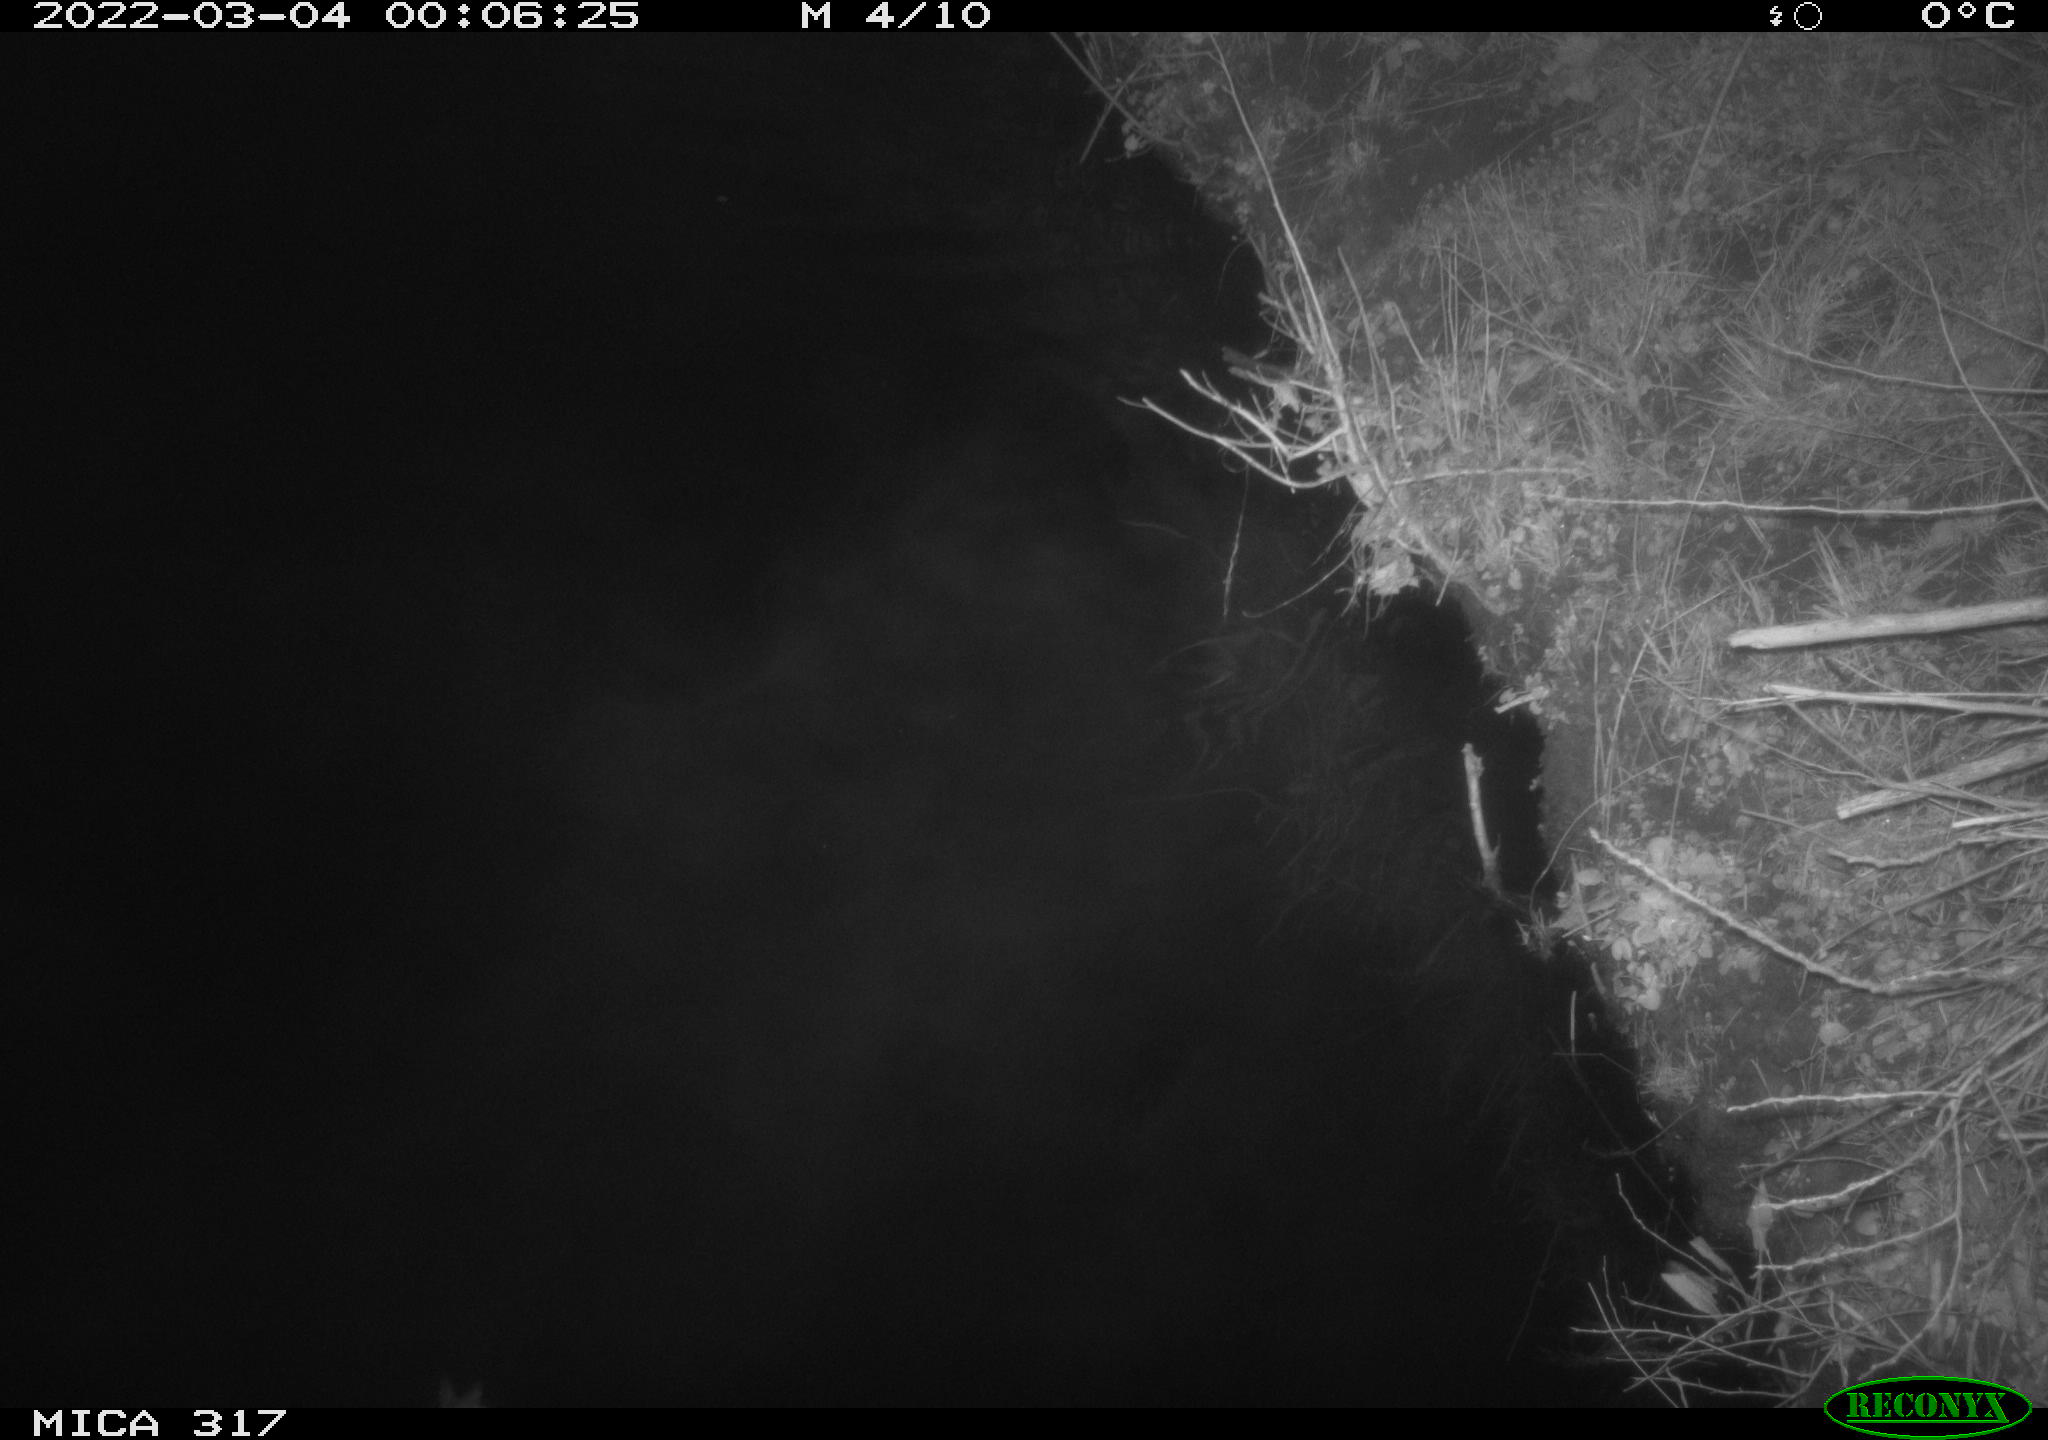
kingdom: Animalia
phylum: Chordata
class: Aves
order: Anseriformes
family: Anatidae
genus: Anas
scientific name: Anas platyrhynchos
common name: Mallard
